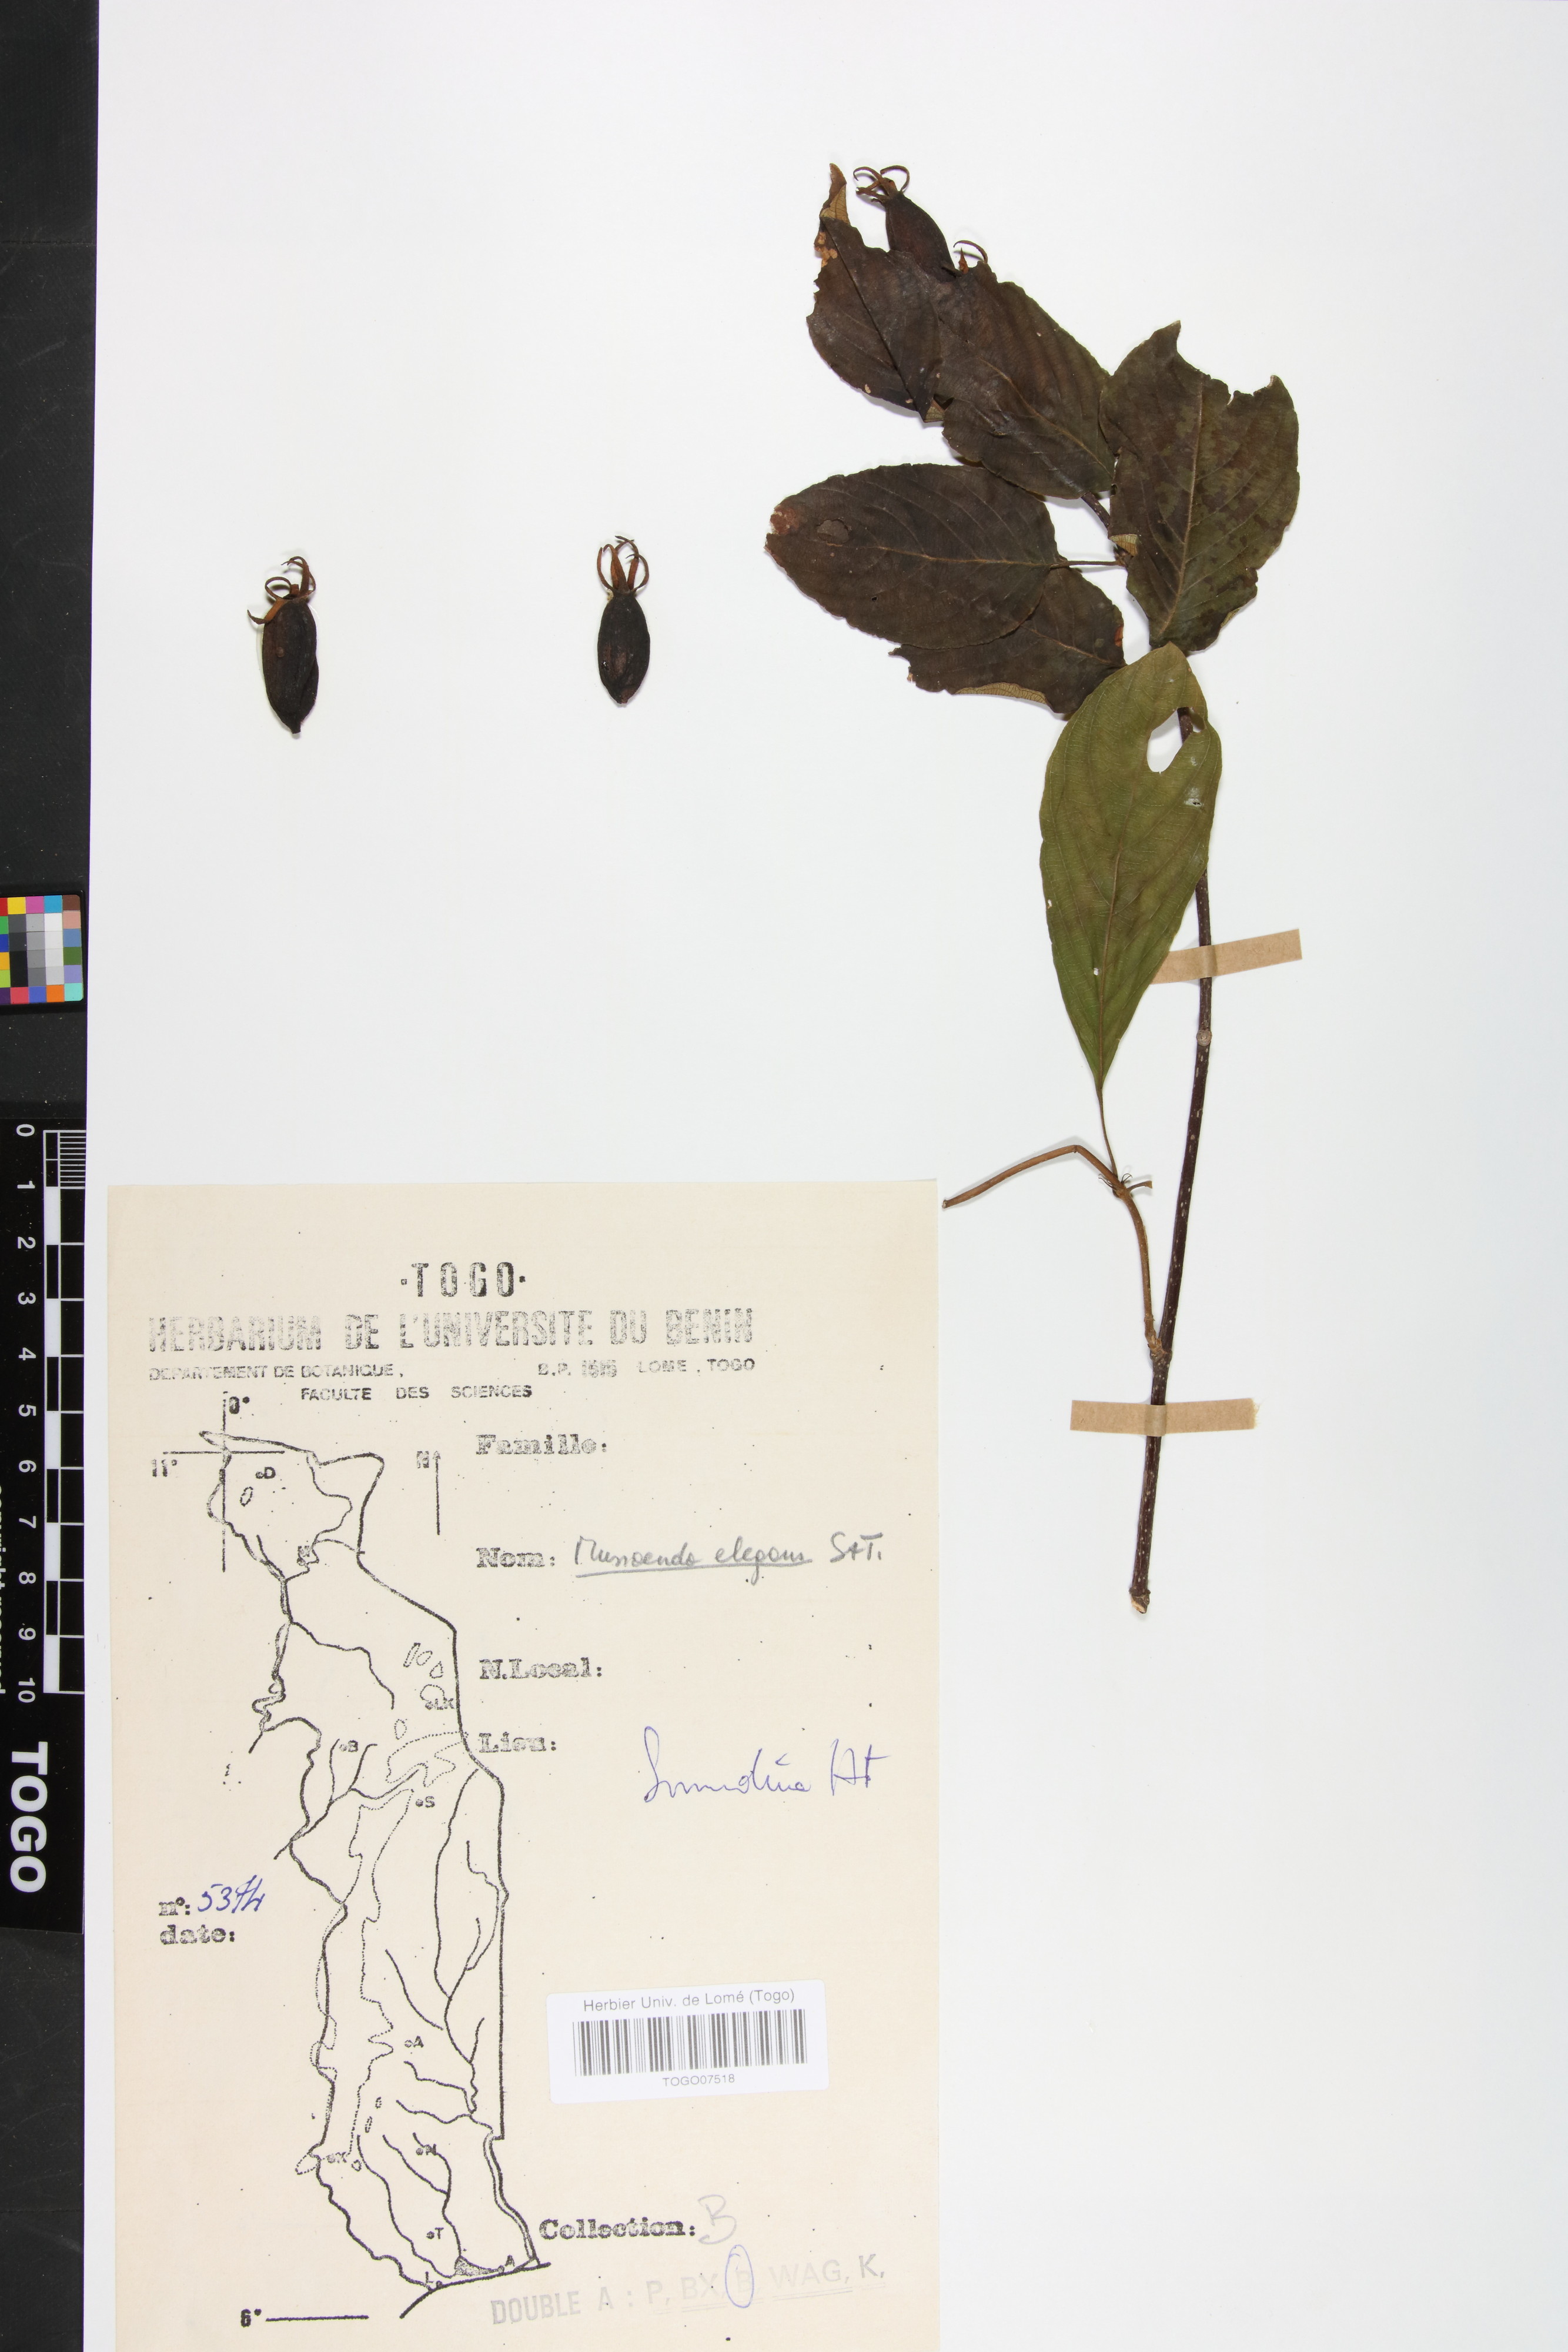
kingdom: Plantae
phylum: Tracheophyta
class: Magnoliopsida
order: Gentianales
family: Rubiaceae
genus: Mussaenda
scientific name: Mussaenda elegans
